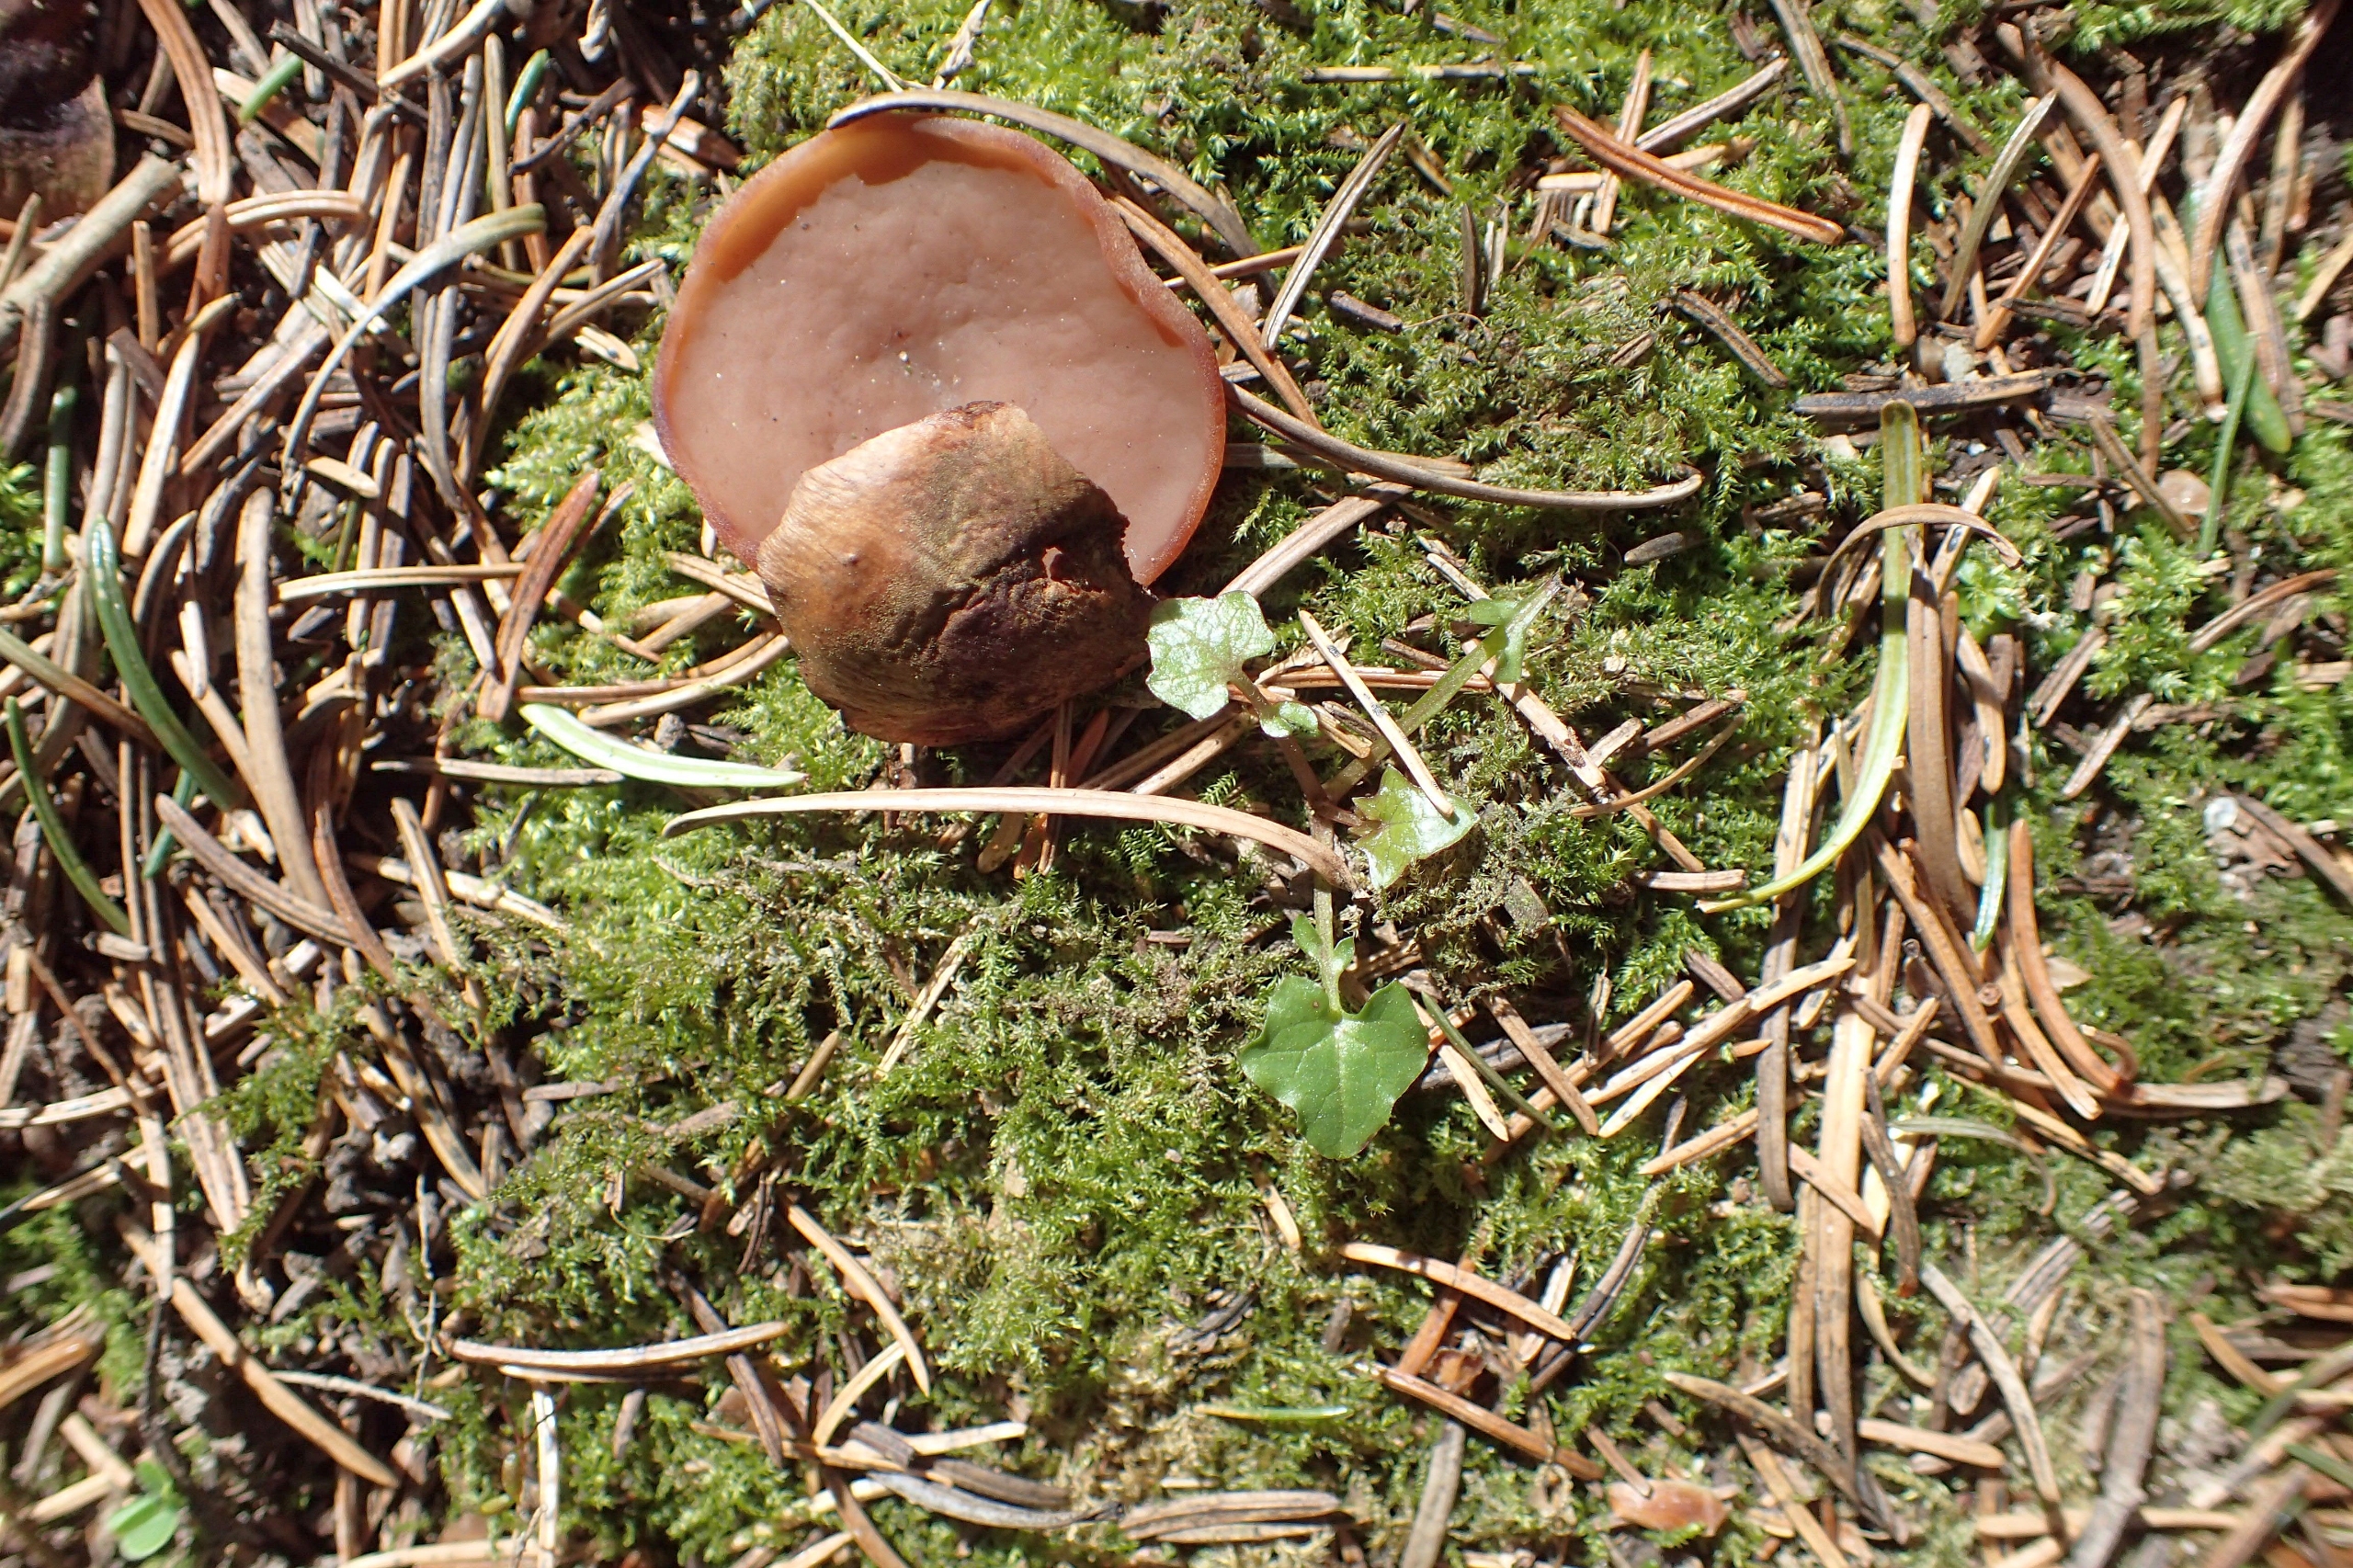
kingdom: Fungi
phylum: Ascomycota
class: Pezizomycetes
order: Pezizales
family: Discinaceae
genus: Discina
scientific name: Discina ancilis
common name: Udbredt stenmorkel
